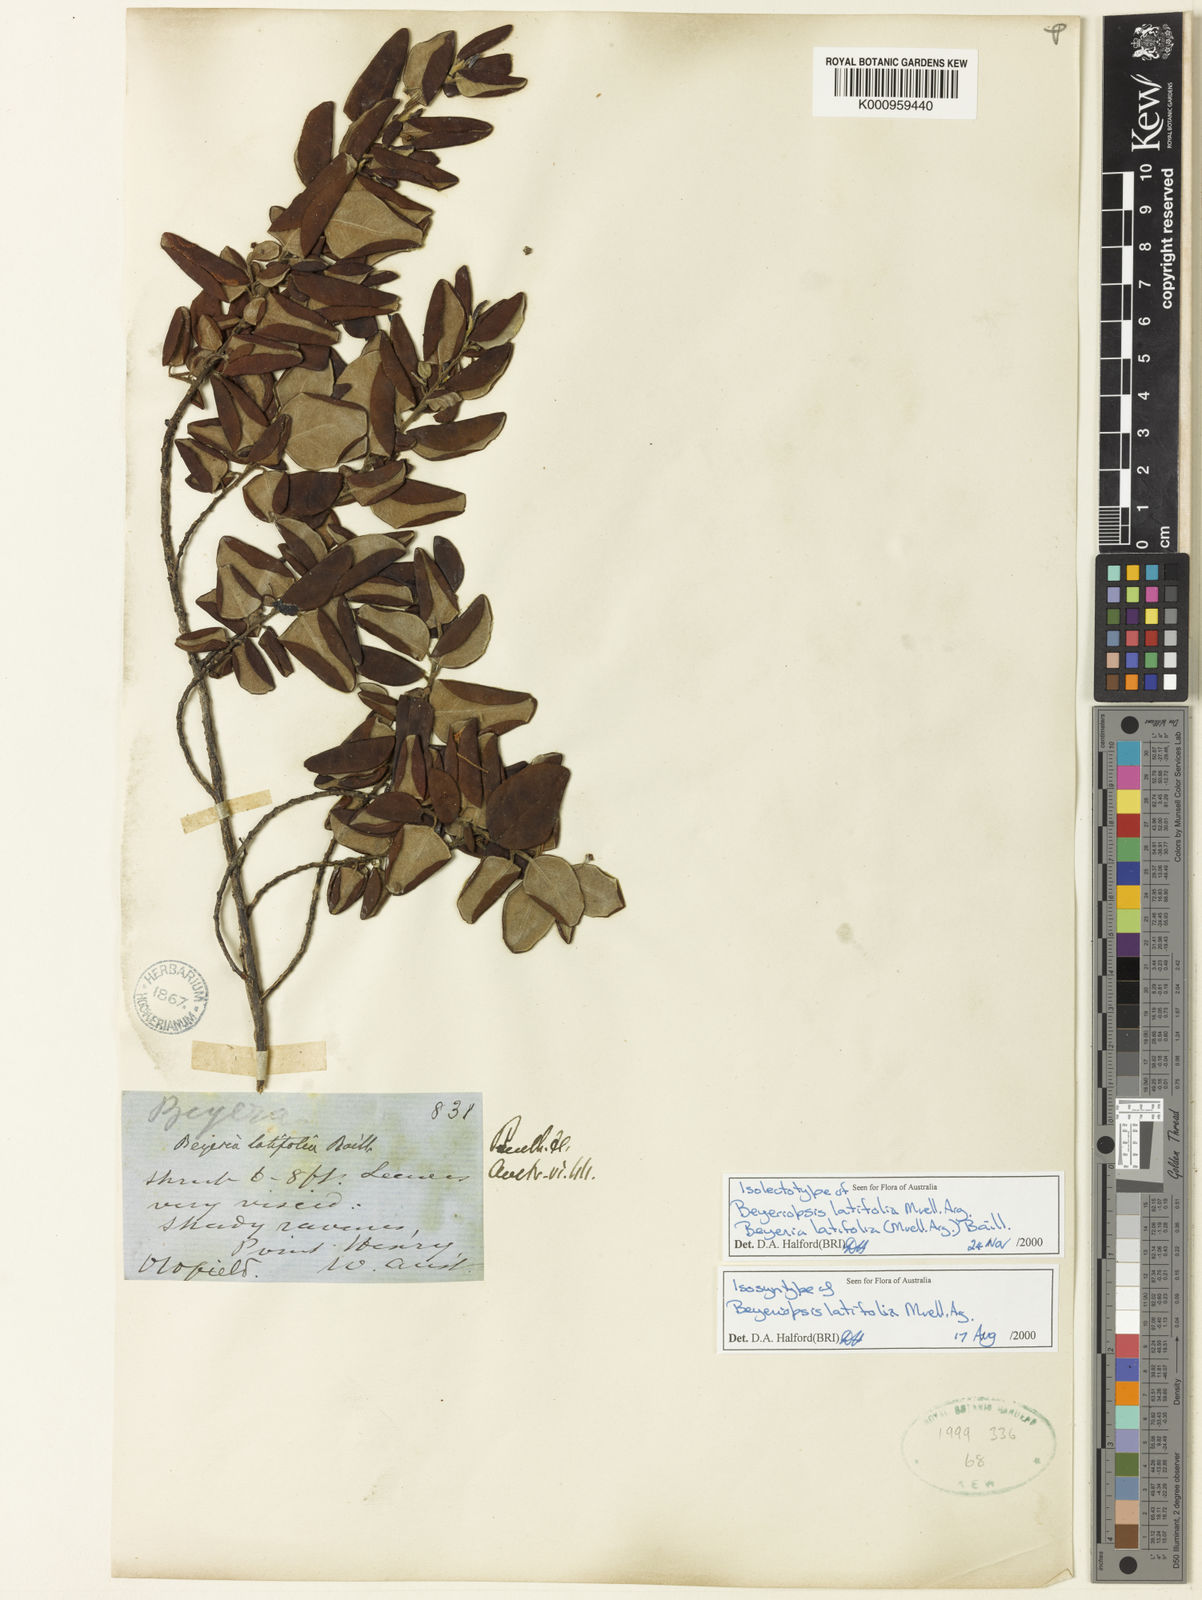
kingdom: Plantae
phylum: Tracheophyta
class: Magnoliopsida
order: Malpighiales
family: Euphorbiaceae
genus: Beyeria
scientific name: Beyeria
